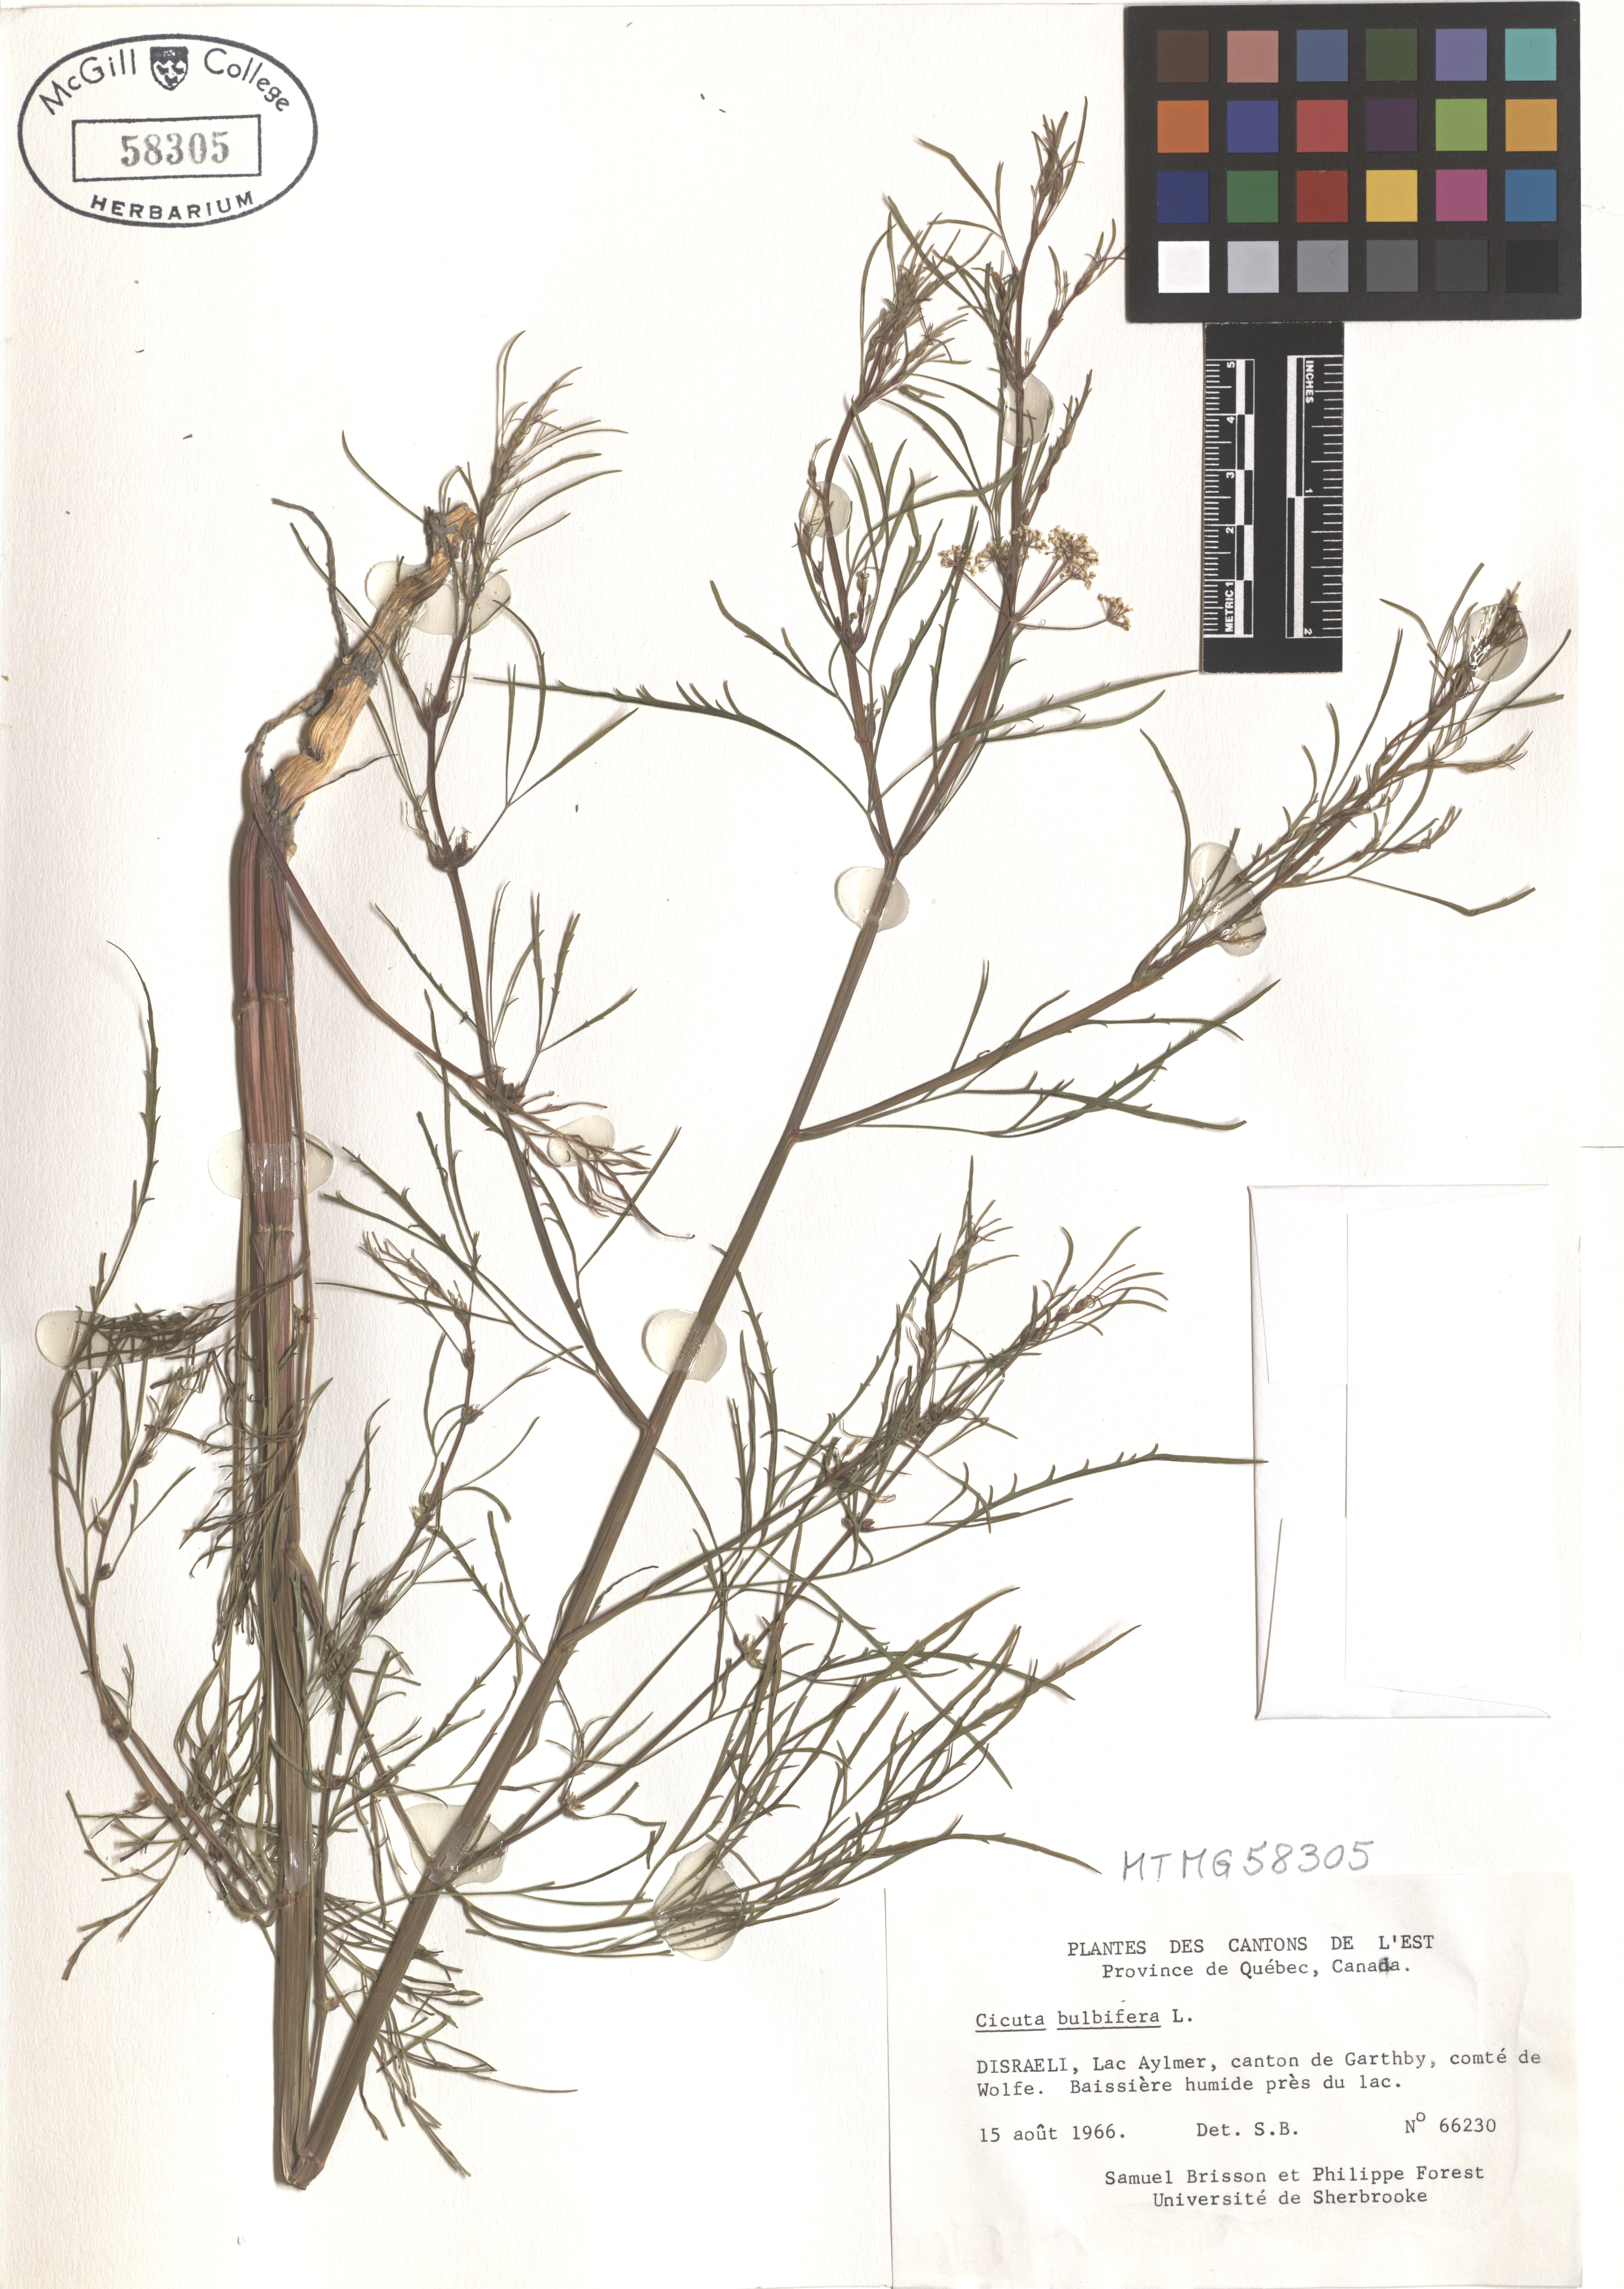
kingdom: Plantae
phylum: Tracheophyta
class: Magnoliopsida
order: Apiales
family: Apiaceae
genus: Cicuta
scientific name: Cicuta bulbifera
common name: Bulb-bearing water-hemlock
